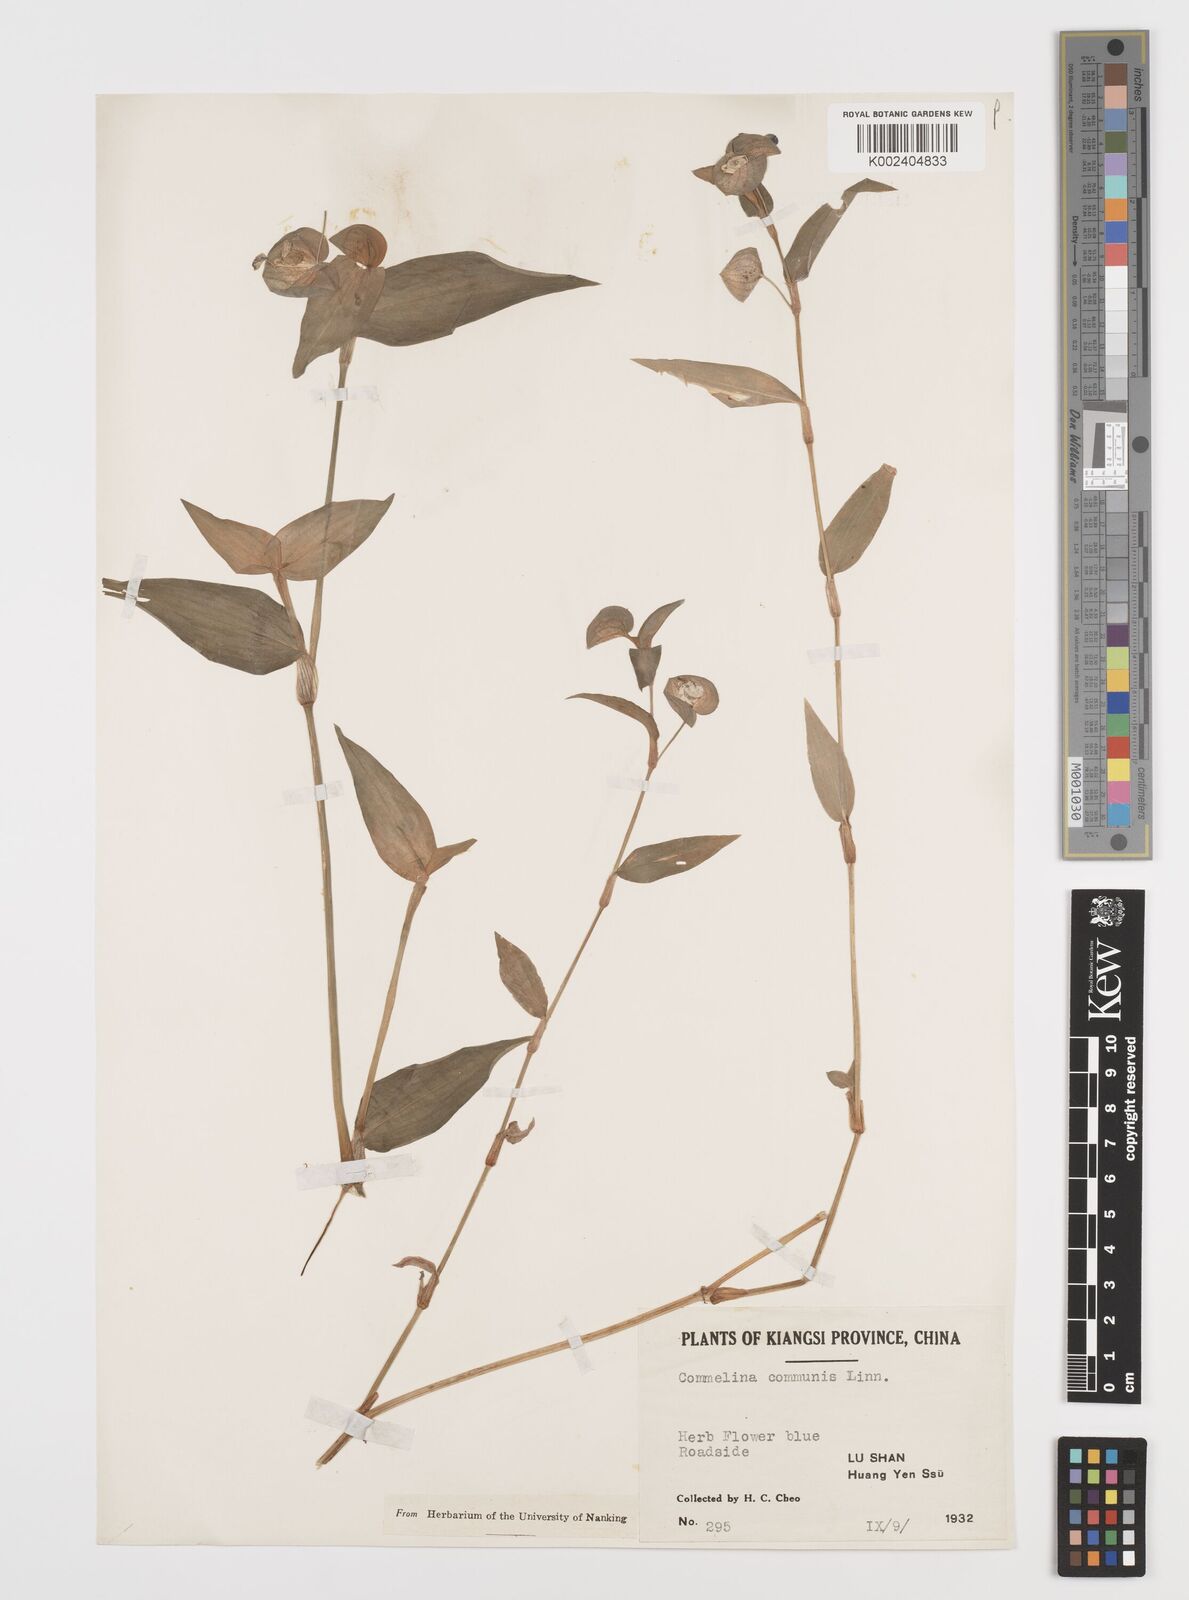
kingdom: Plantae
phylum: Tracheophyta
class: Liliopsida
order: Commelinales
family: Commelinaceae
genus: Commelina
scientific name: Commelina communis
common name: Asiatic dayflower
